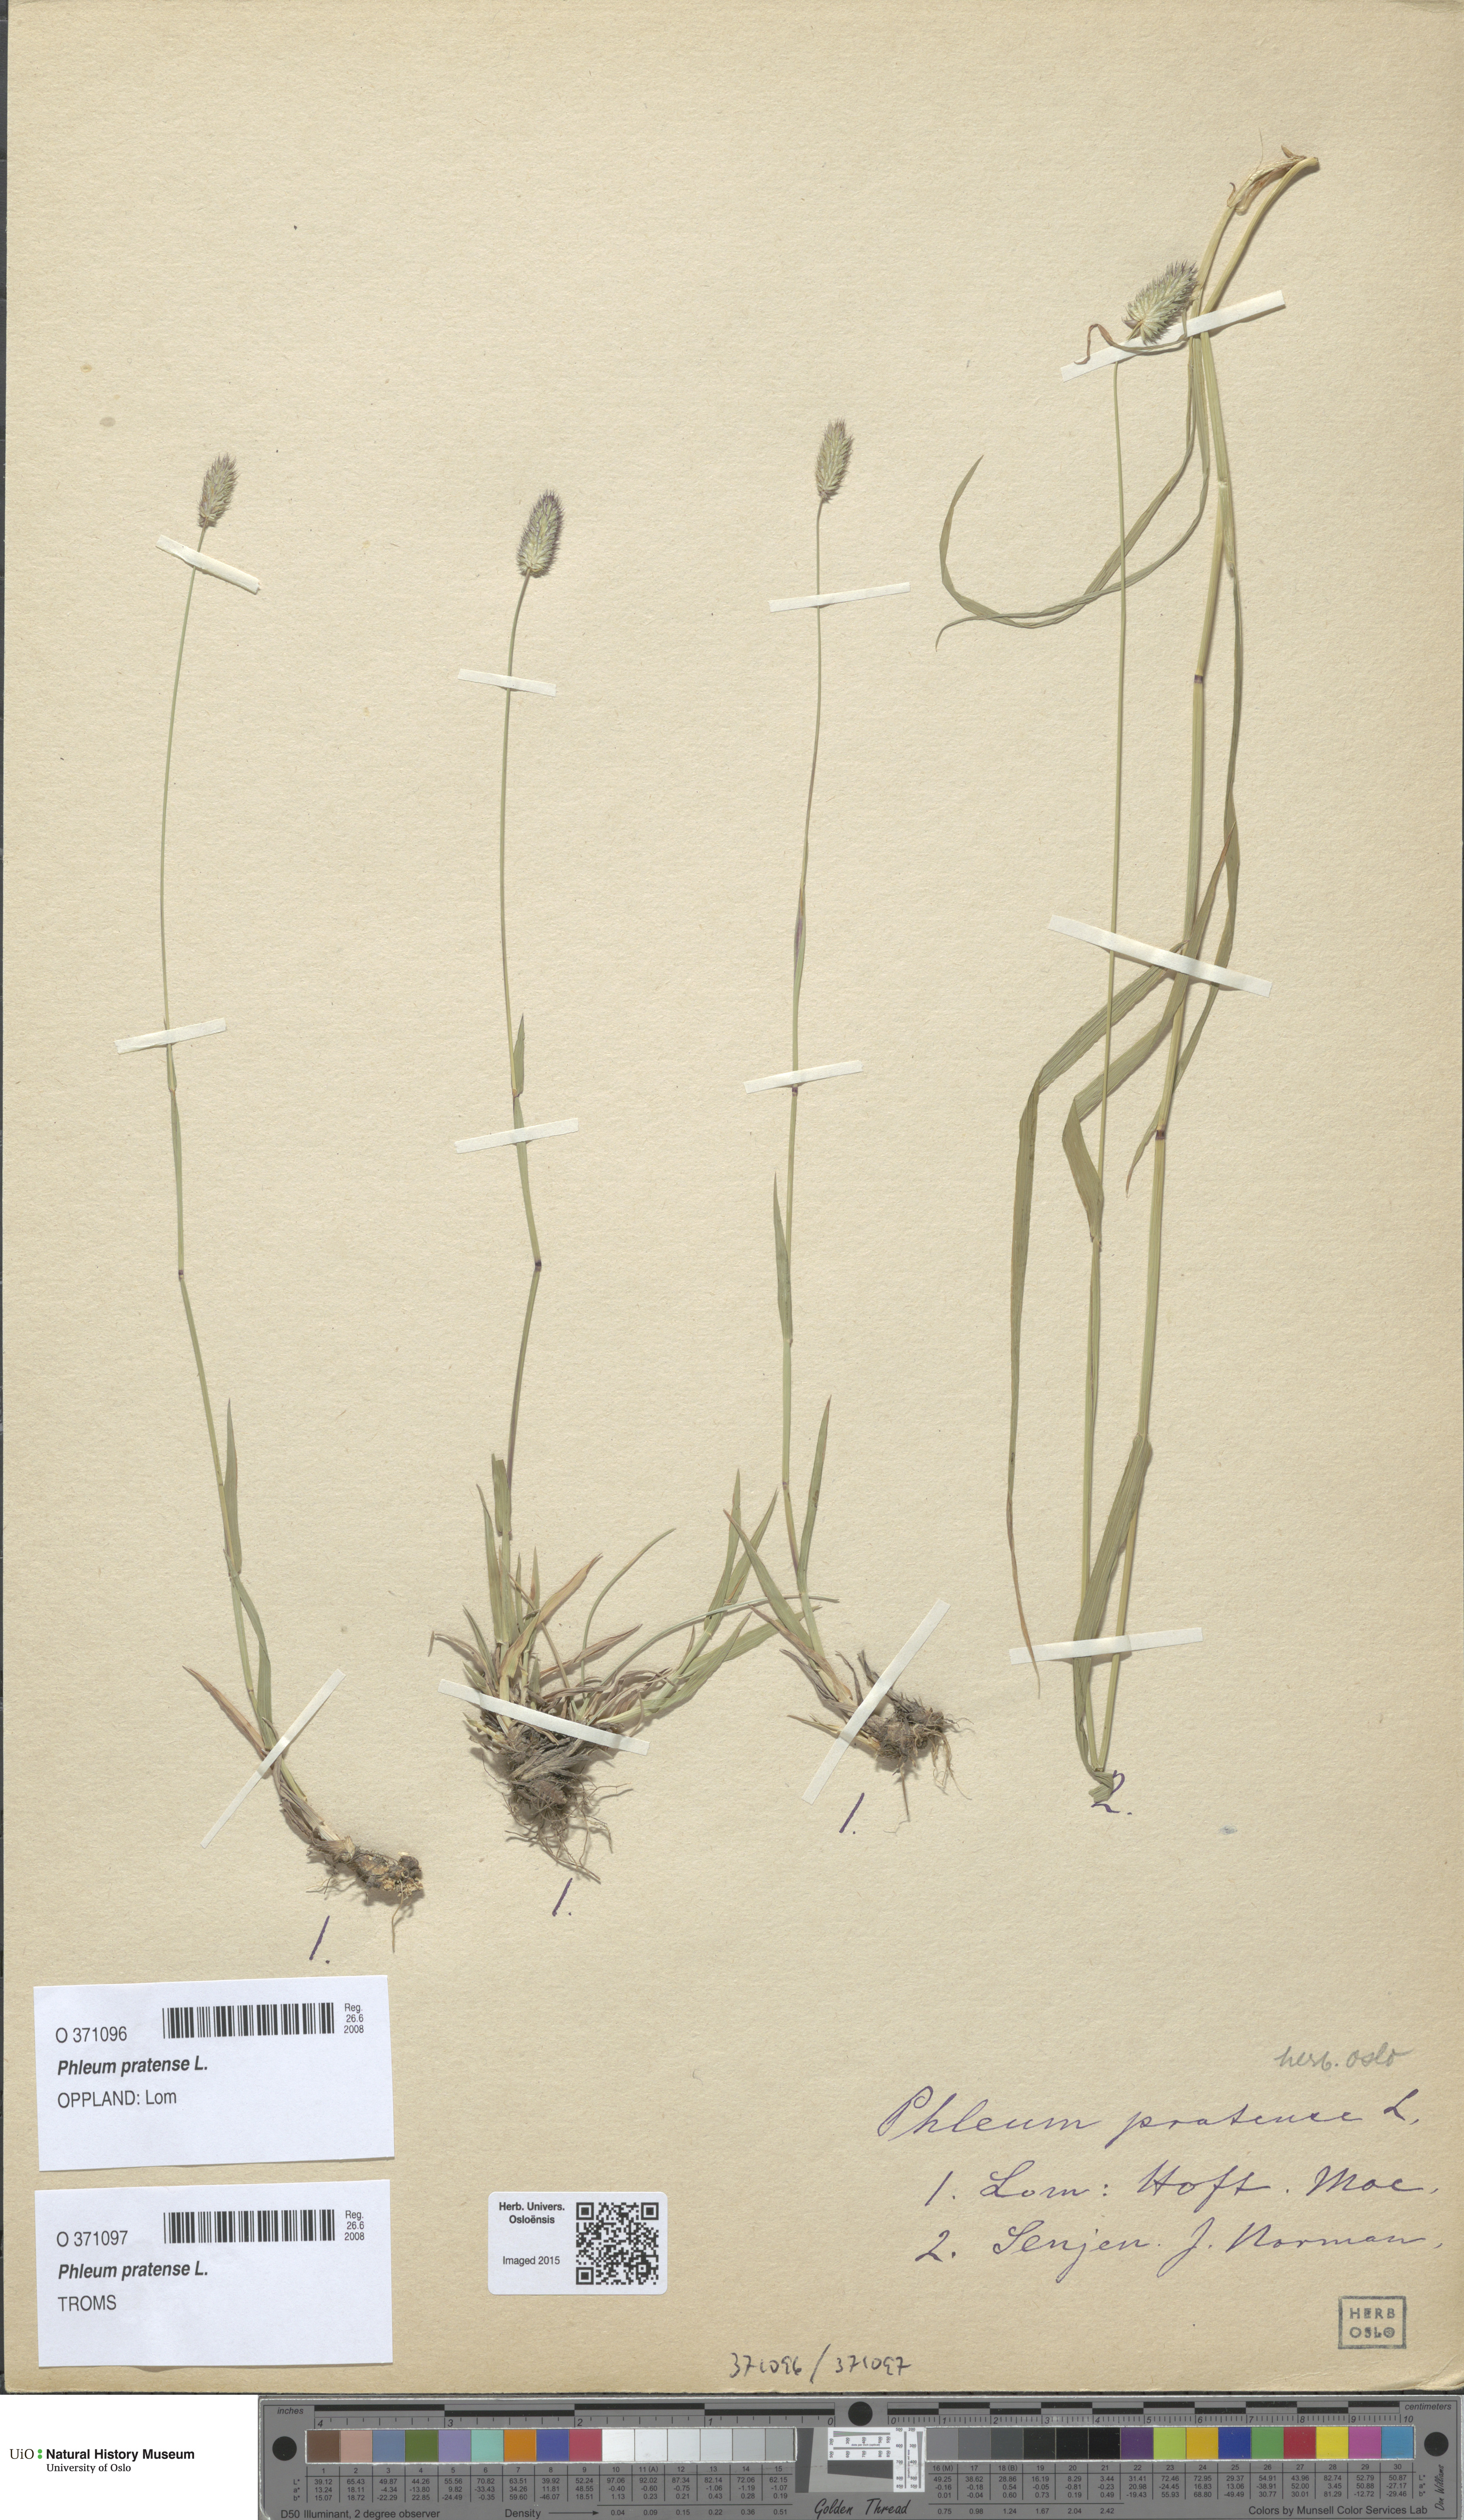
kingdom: Plantae
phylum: Tracheophyta
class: Liliopsida
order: Poales
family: Poaceae
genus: Phleum
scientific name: Phleum pratense
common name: Timothy grass
